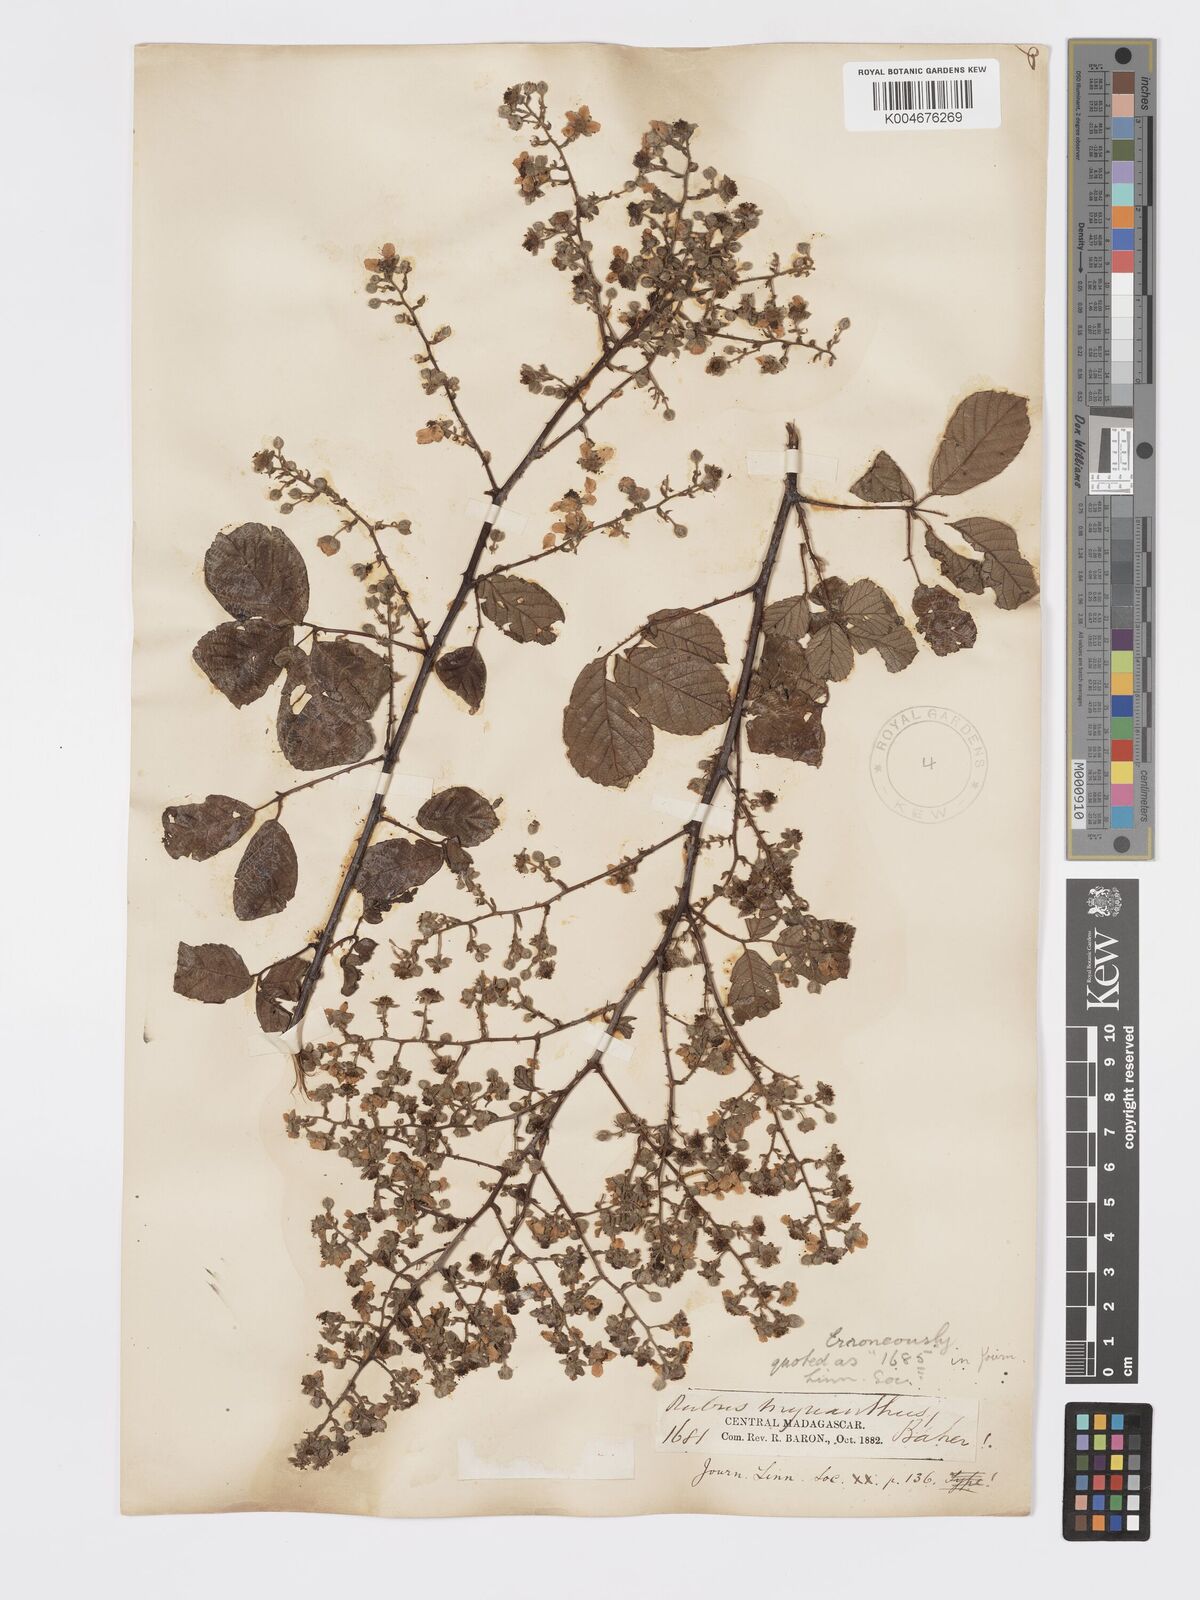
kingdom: Plantae
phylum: Tracheophyta
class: Magnoliopsida
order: Rosales
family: Rosaceae
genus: Rubus
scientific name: Rubus
